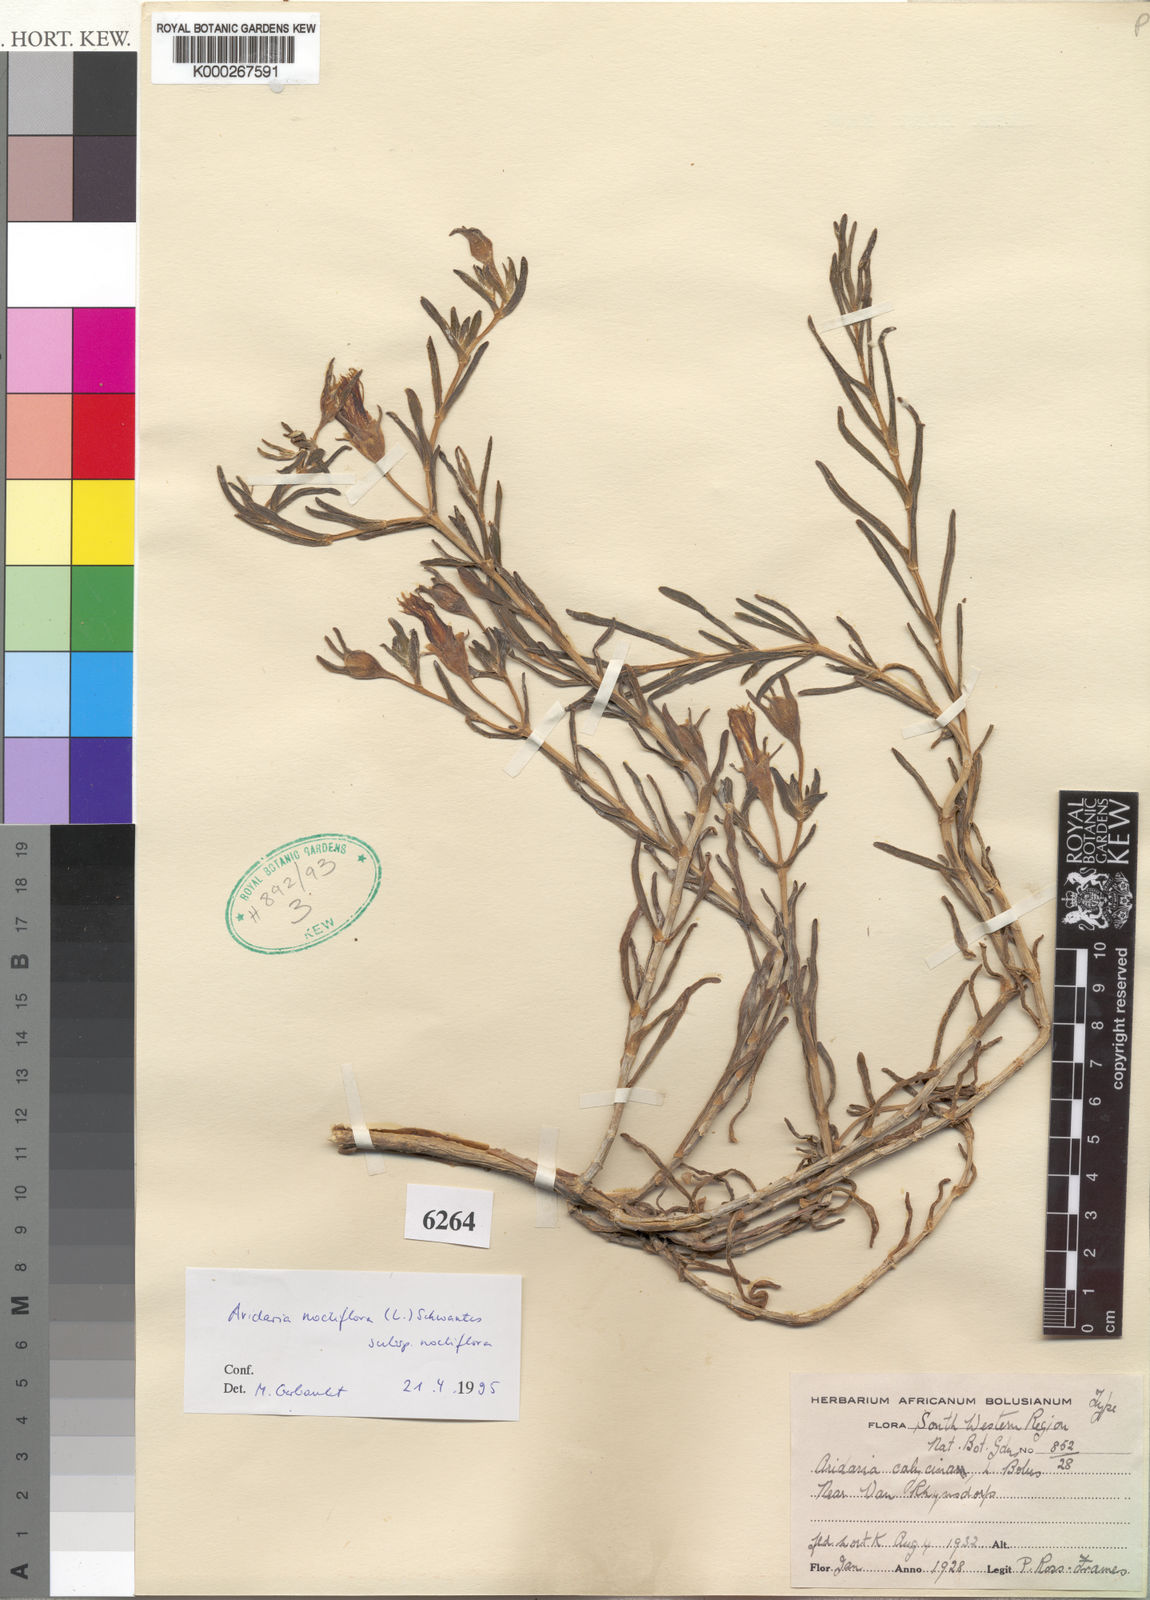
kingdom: Plantae
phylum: Tracheophyta
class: Magnoliopsida
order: Caryophyllales
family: Aizoaceae
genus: Mesembryanthemum
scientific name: Mesembryanthemum noctiflorum
